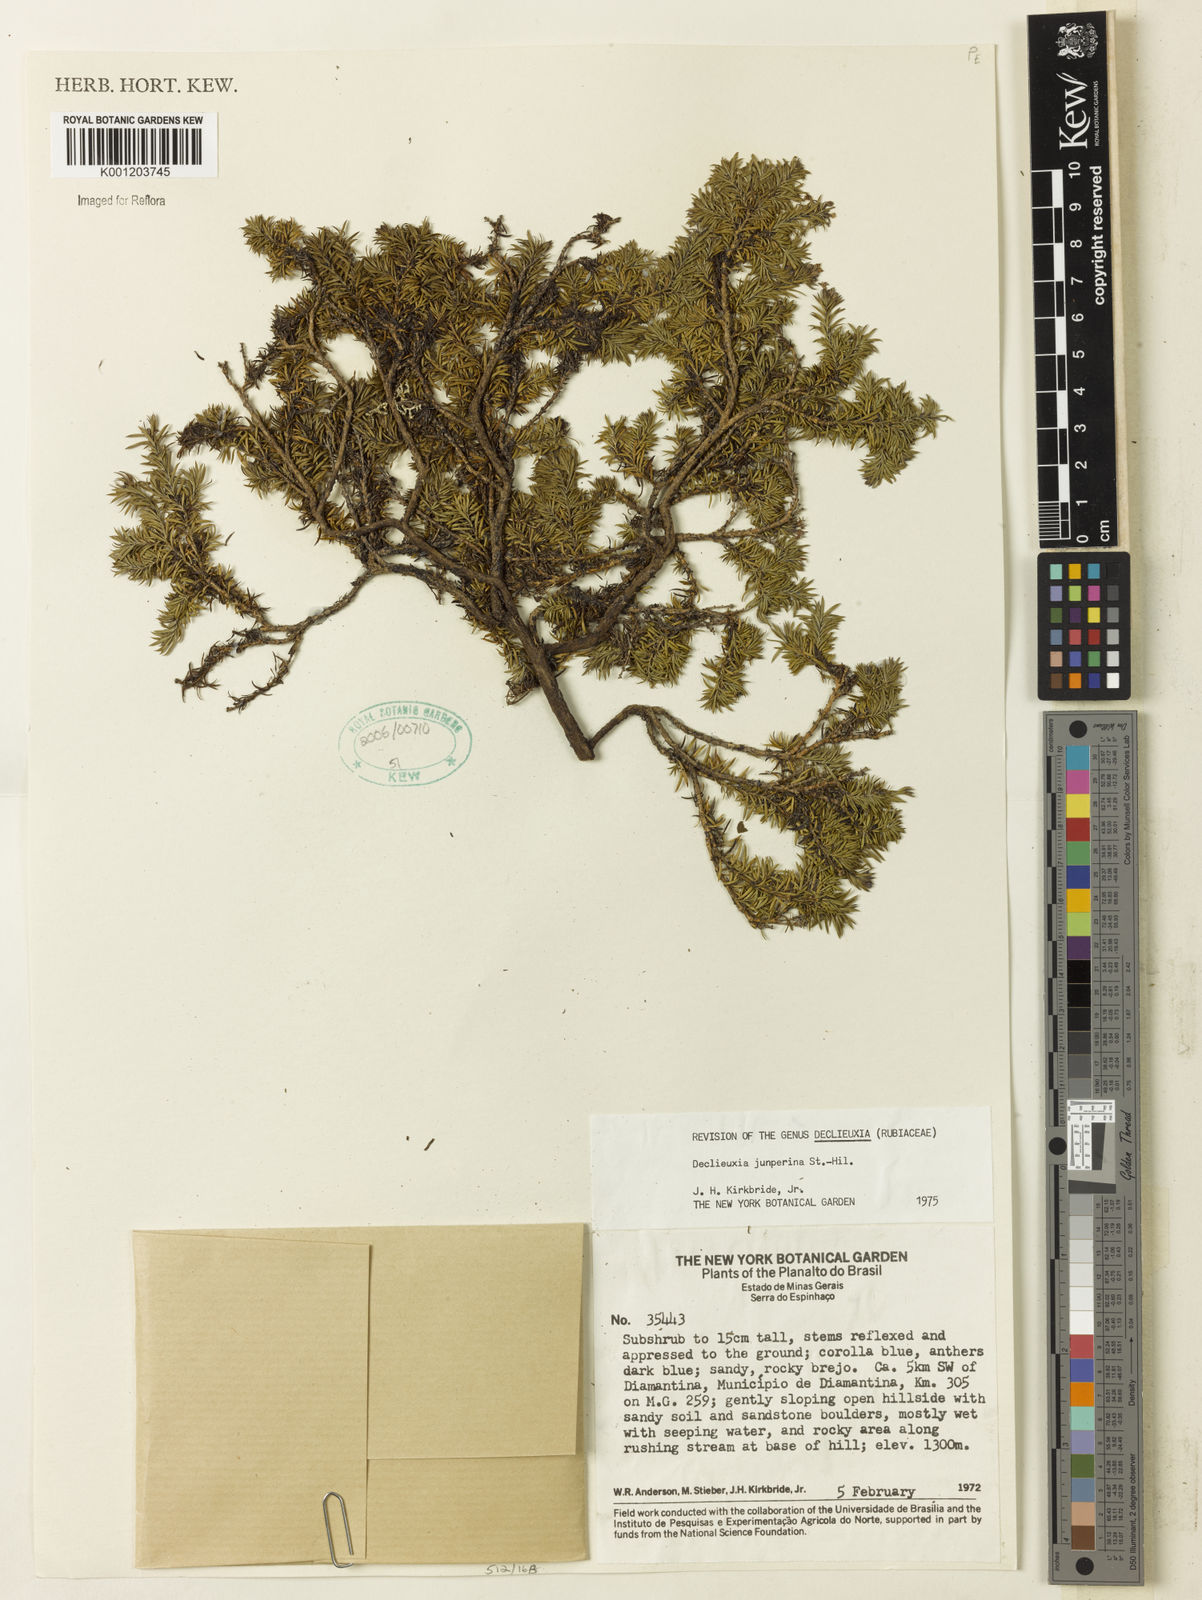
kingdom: Plantae
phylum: Tracheophyta
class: Magnoliopsida
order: Gentianales
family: Rubiaceae
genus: Declieuxia
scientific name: Declieuxia juniperina
